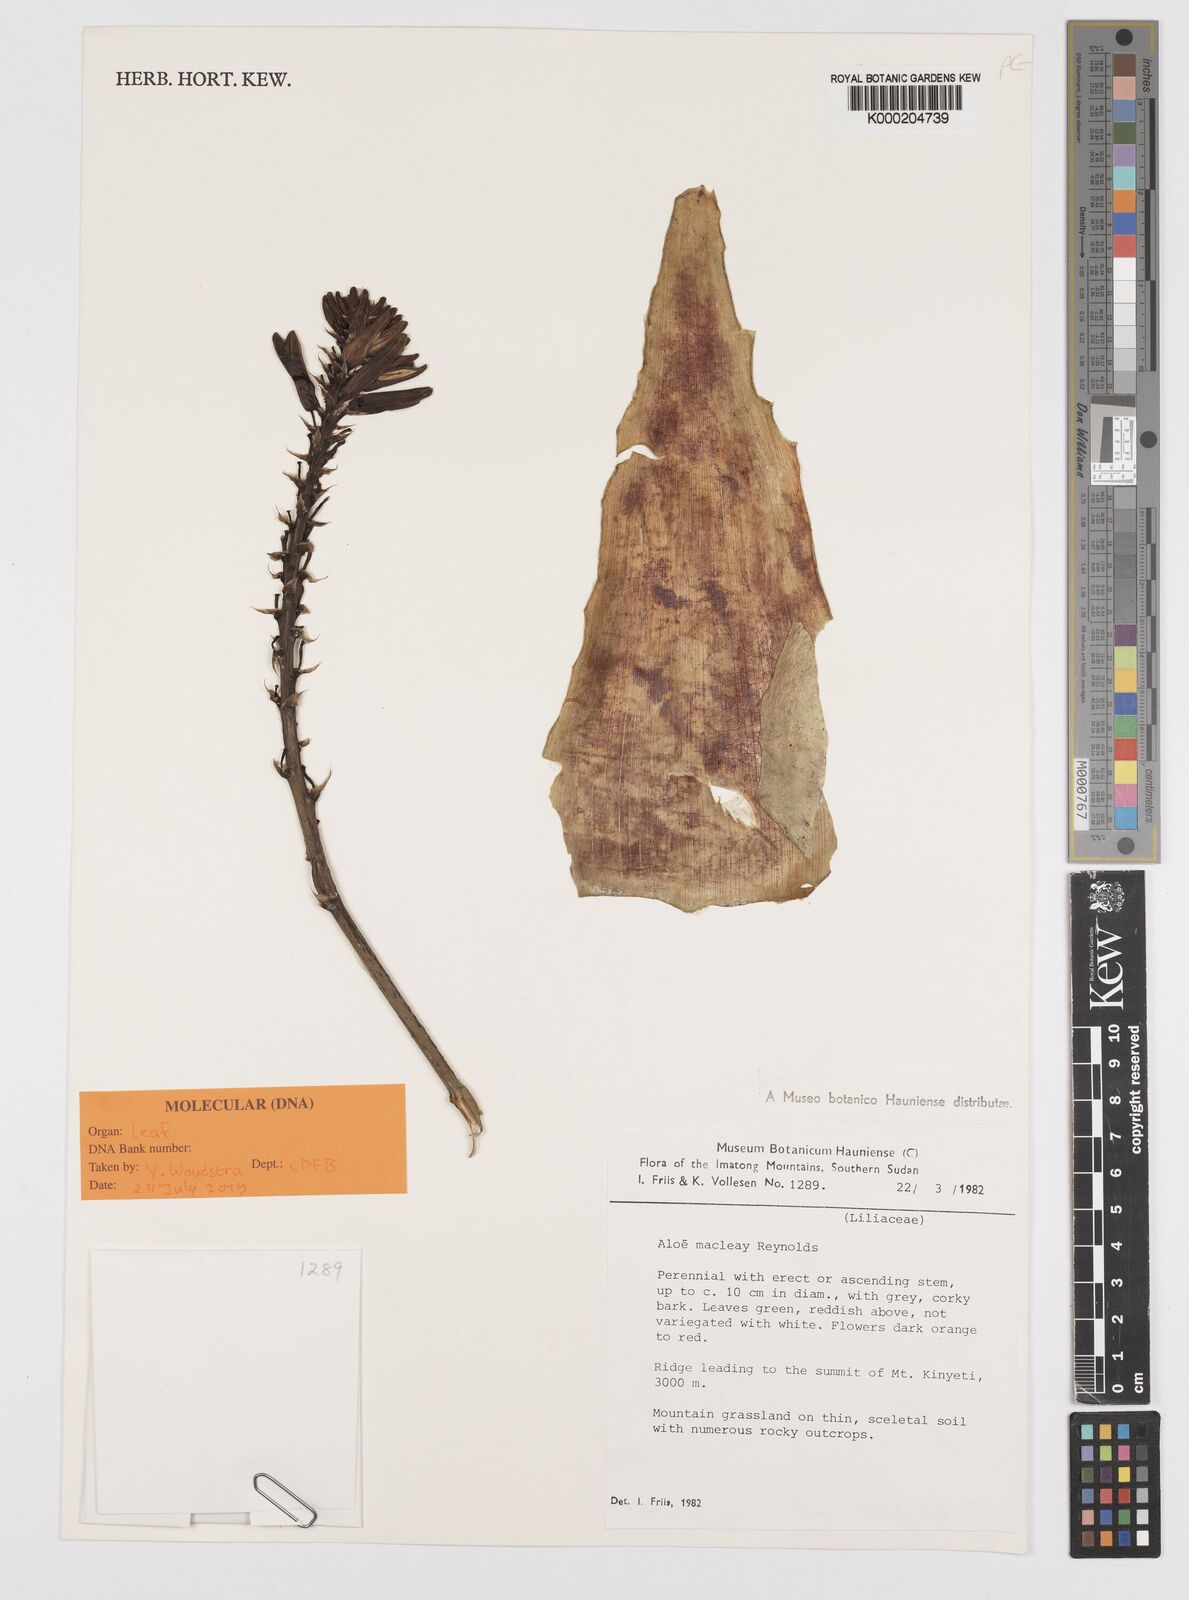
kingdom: Plantae
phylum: Tracheophyta
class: Liliopsida
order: Asparagales
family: Asphodelaceae
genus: Aloe
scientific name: Aloe macleayi
